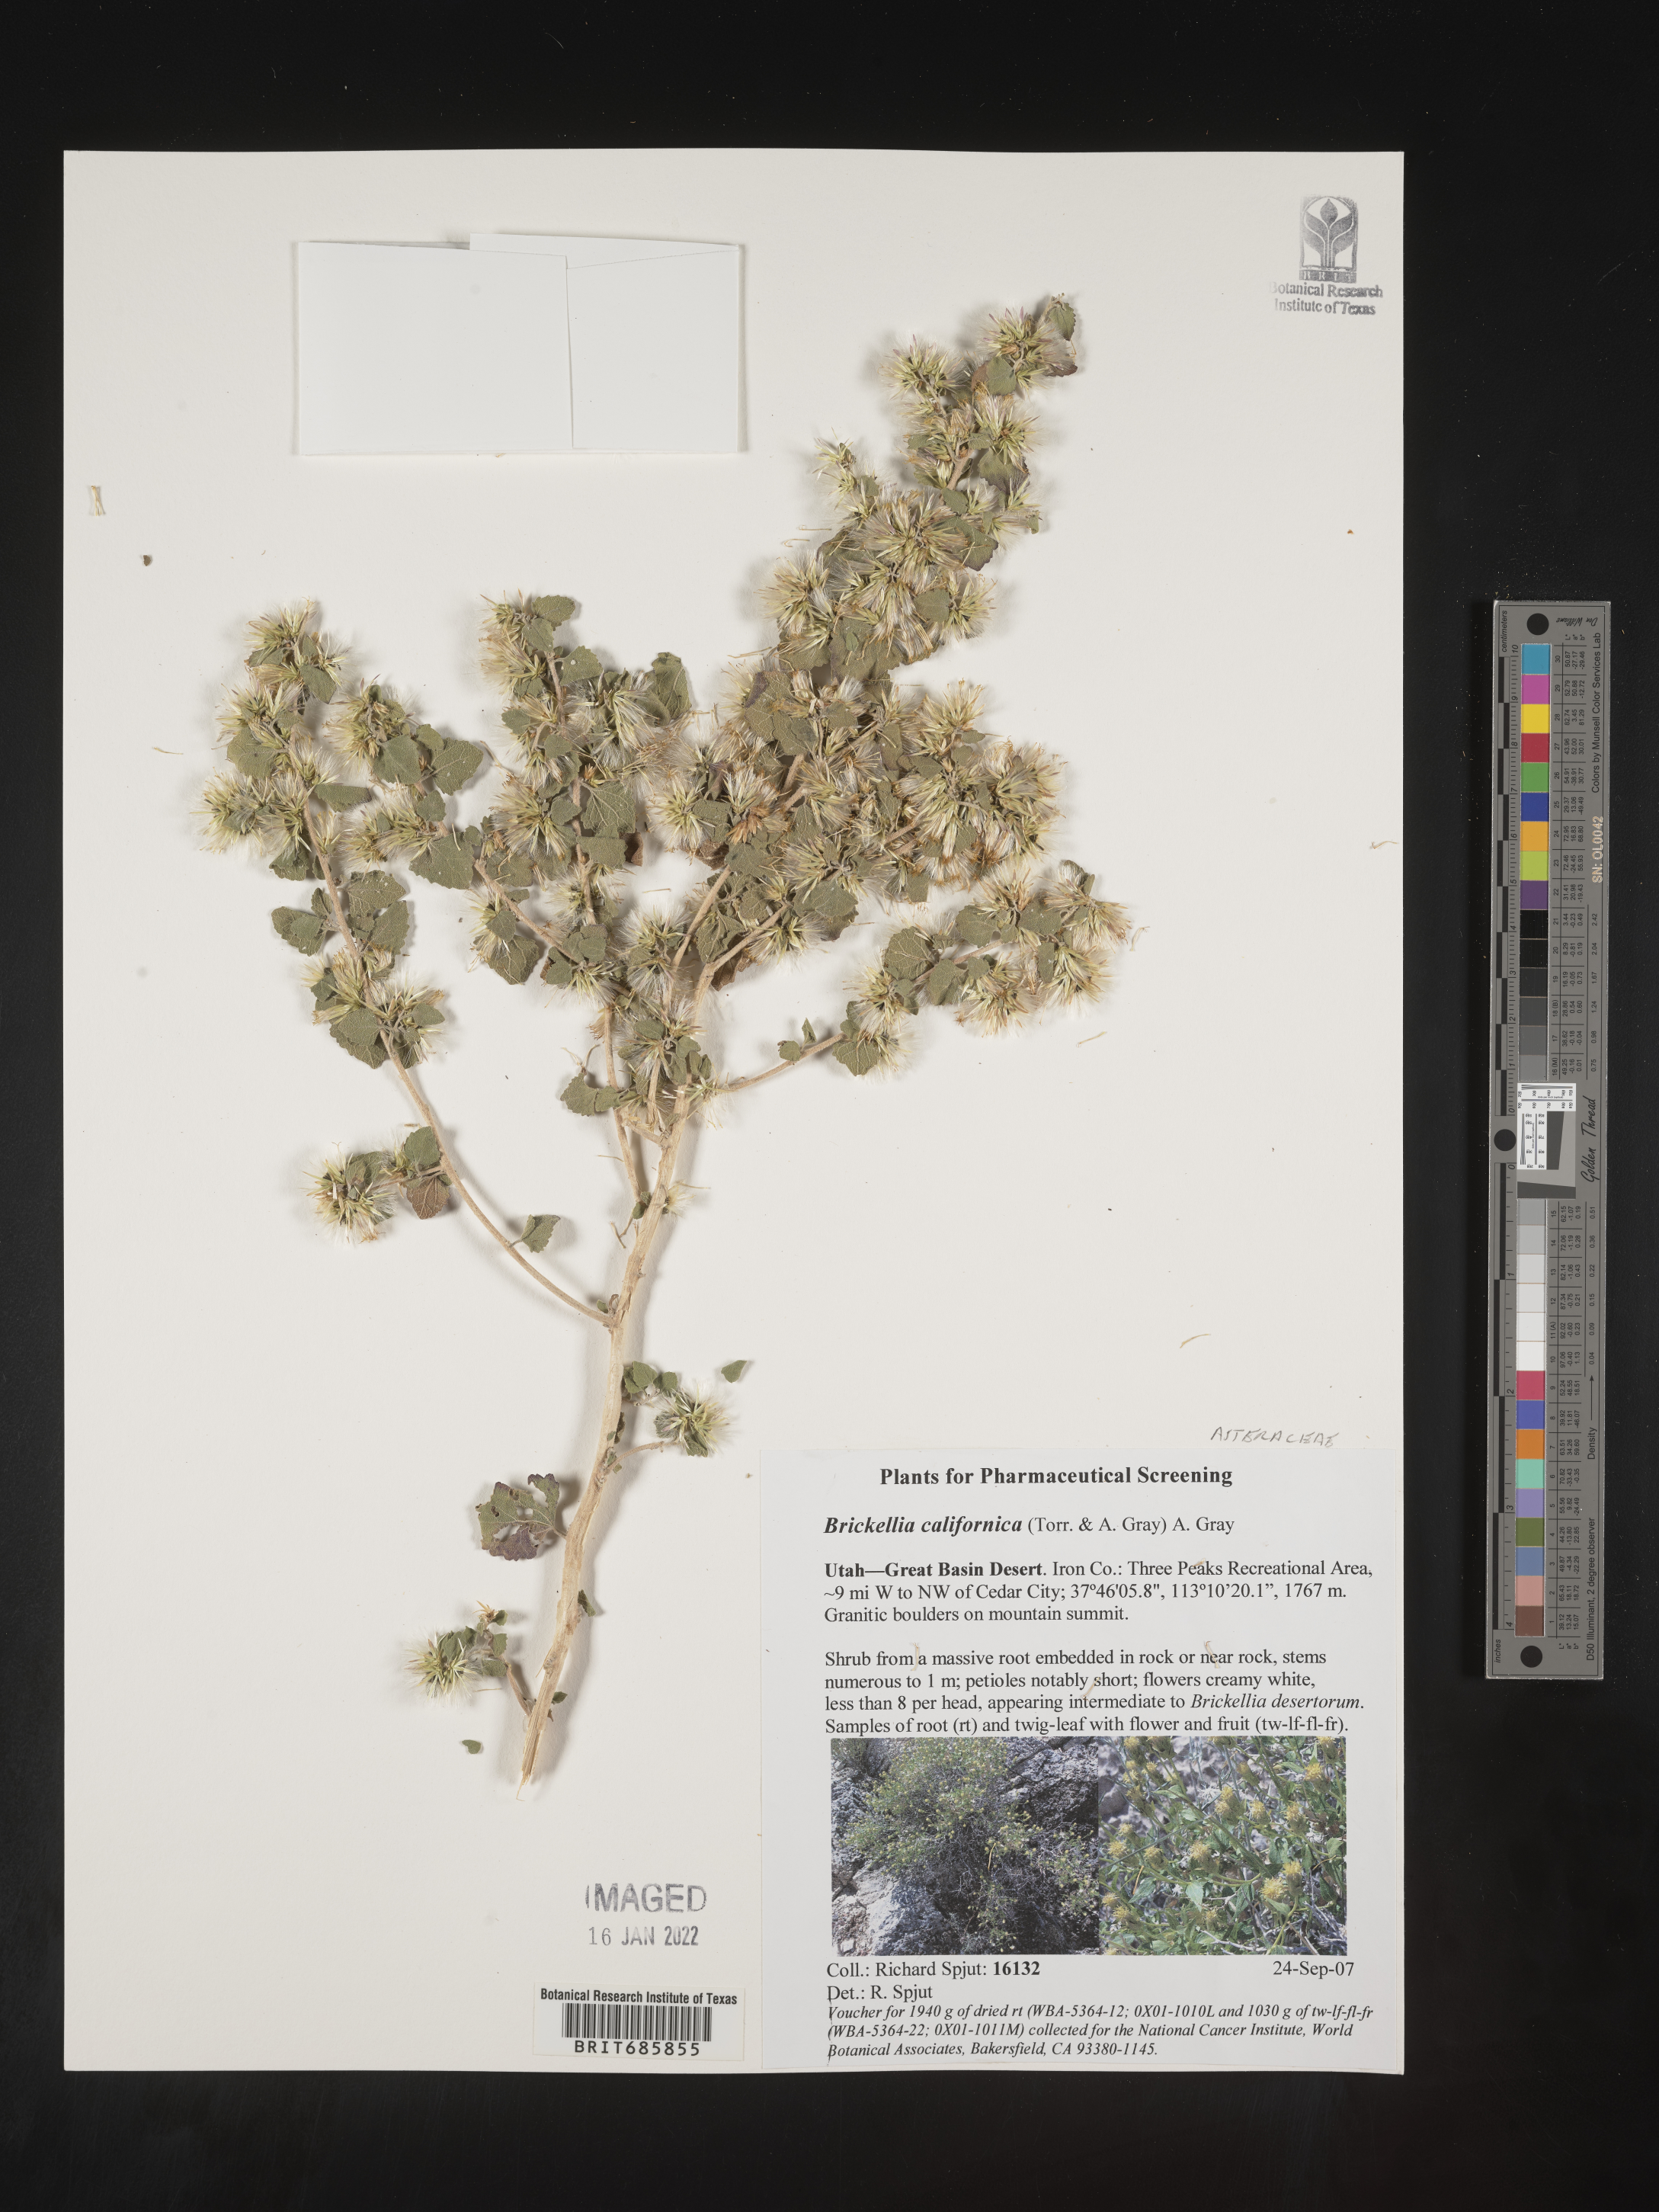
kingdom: Plantae
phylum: Tracheophyta
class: Magnoliopsida
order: Asterales
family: Asteraceae
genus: Brickellia
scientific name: Brickellia californica
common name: California brickellbush
